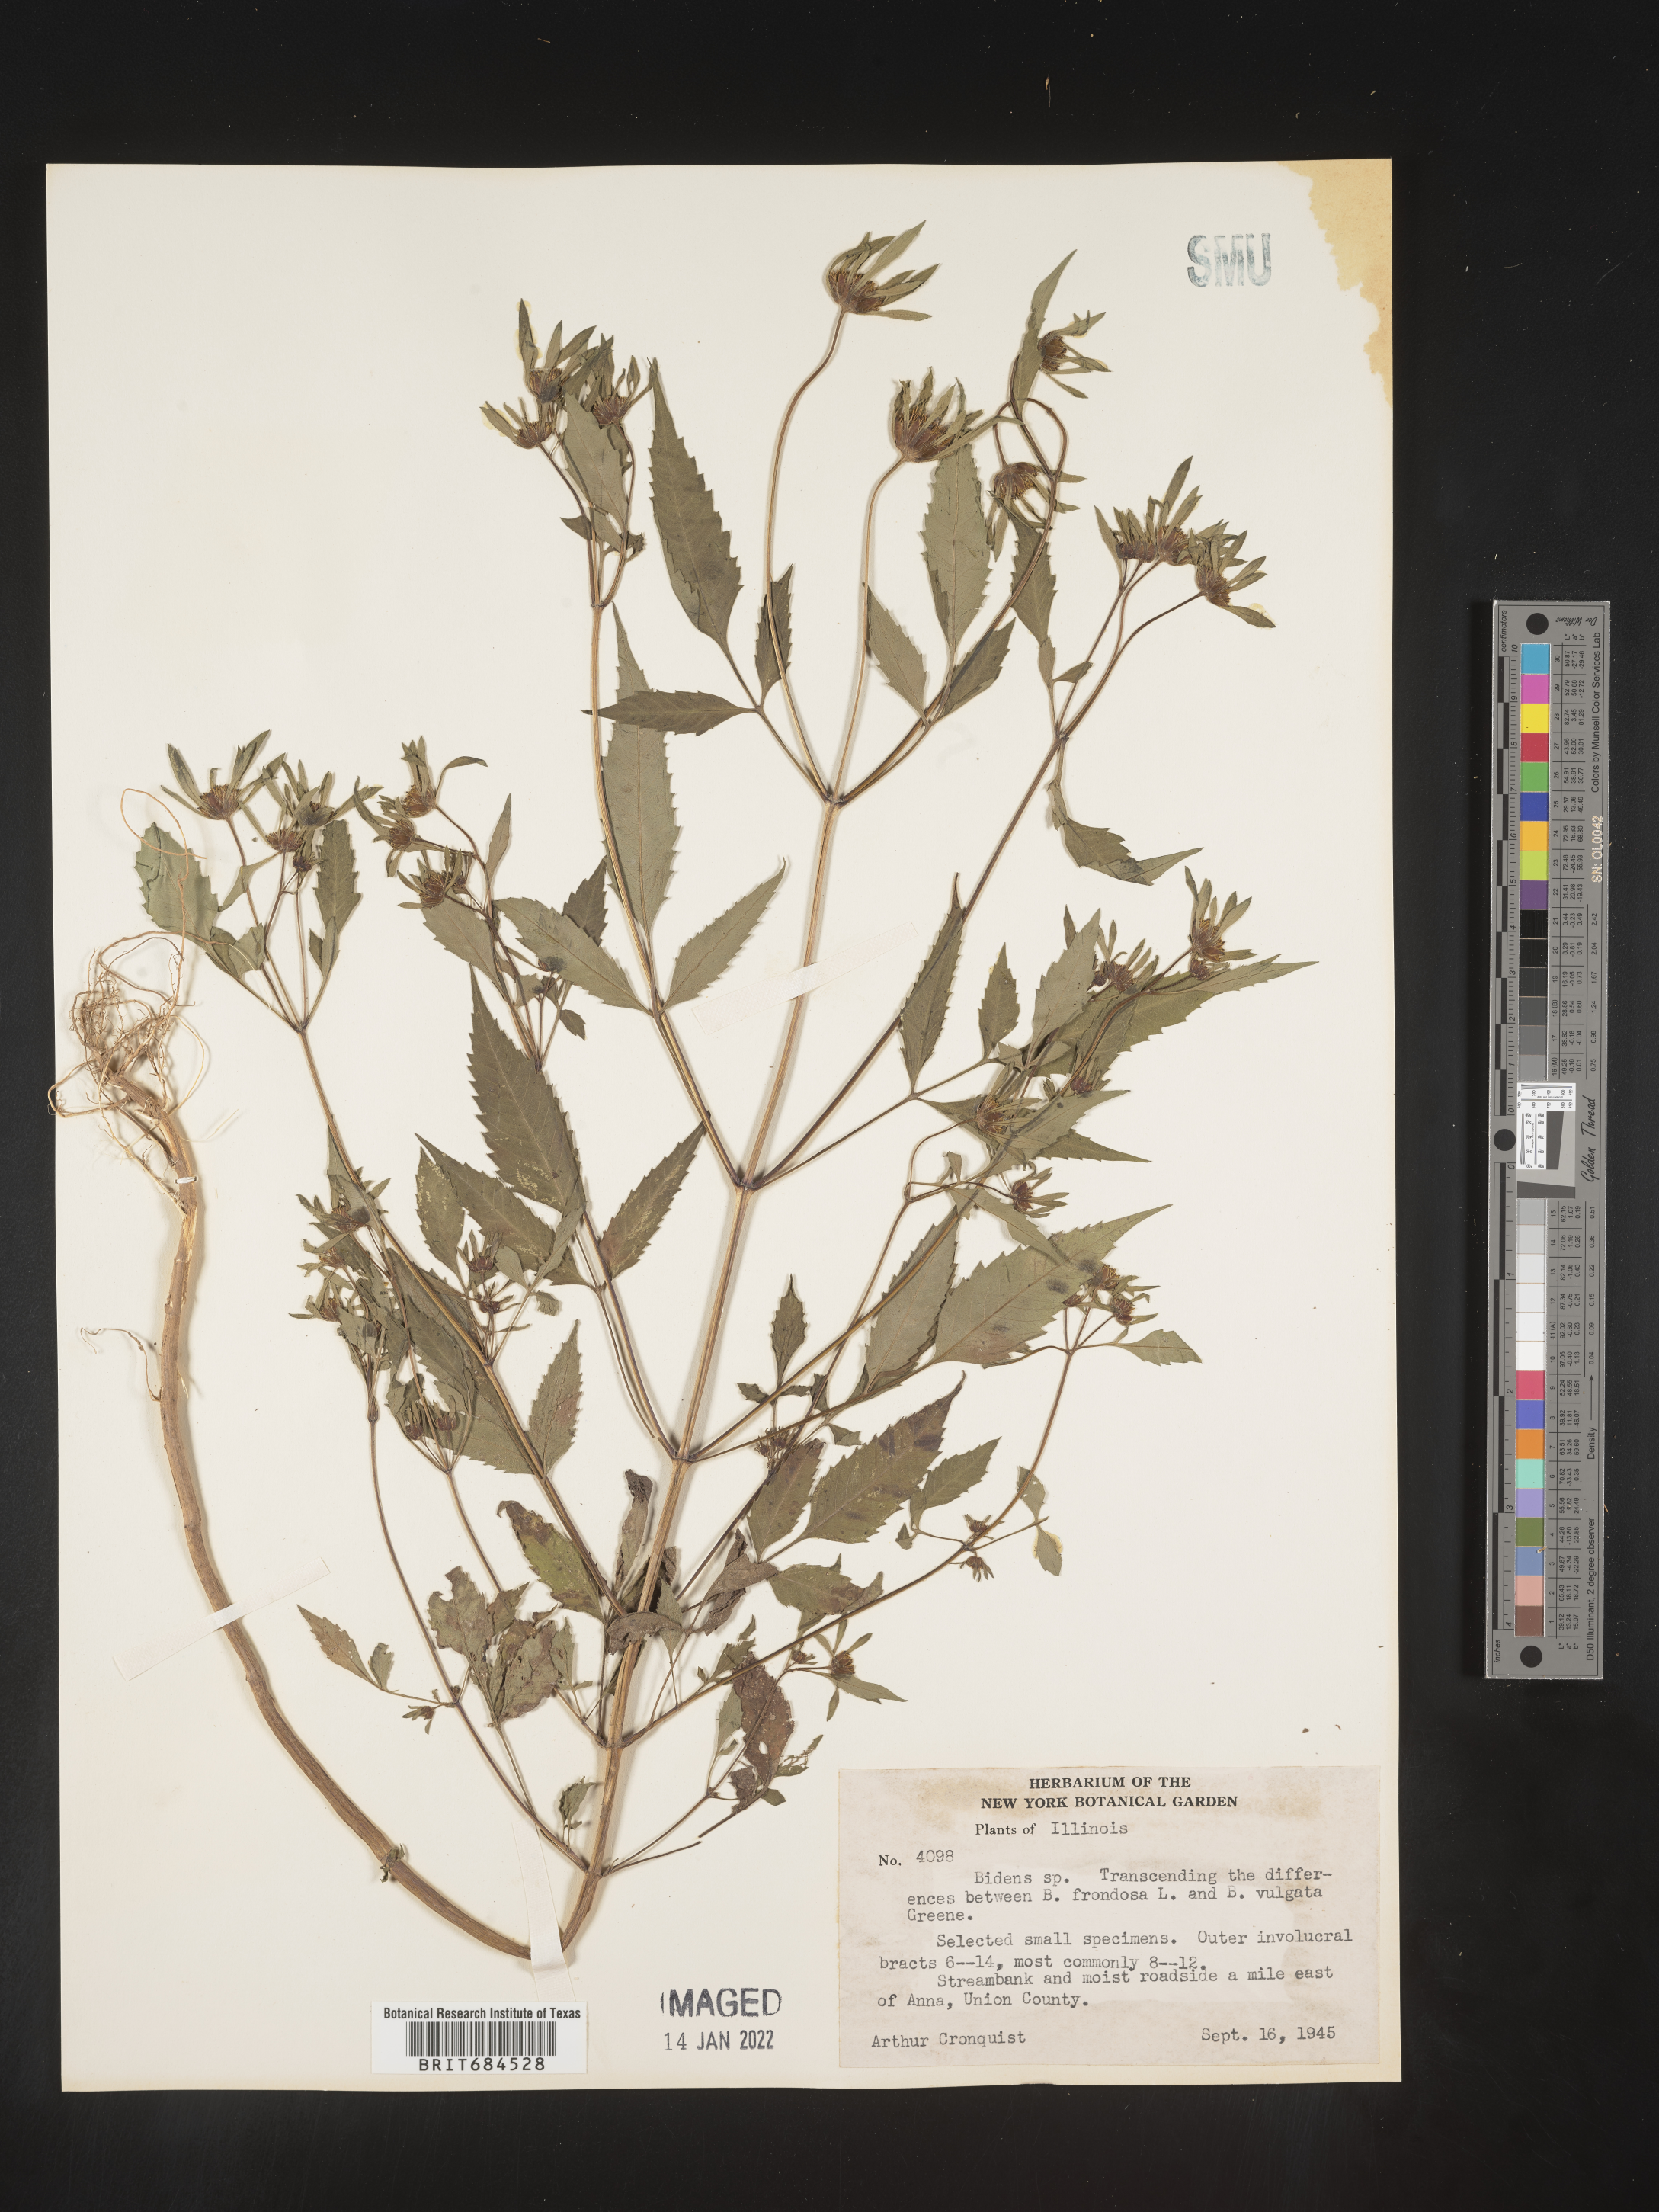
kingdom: Plantae
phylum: Tracheophyta
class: Magnoliopsida
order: Asterales
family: Asteraceae
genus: Bidens
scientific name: Bidens frondosa
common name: Beggarticks
